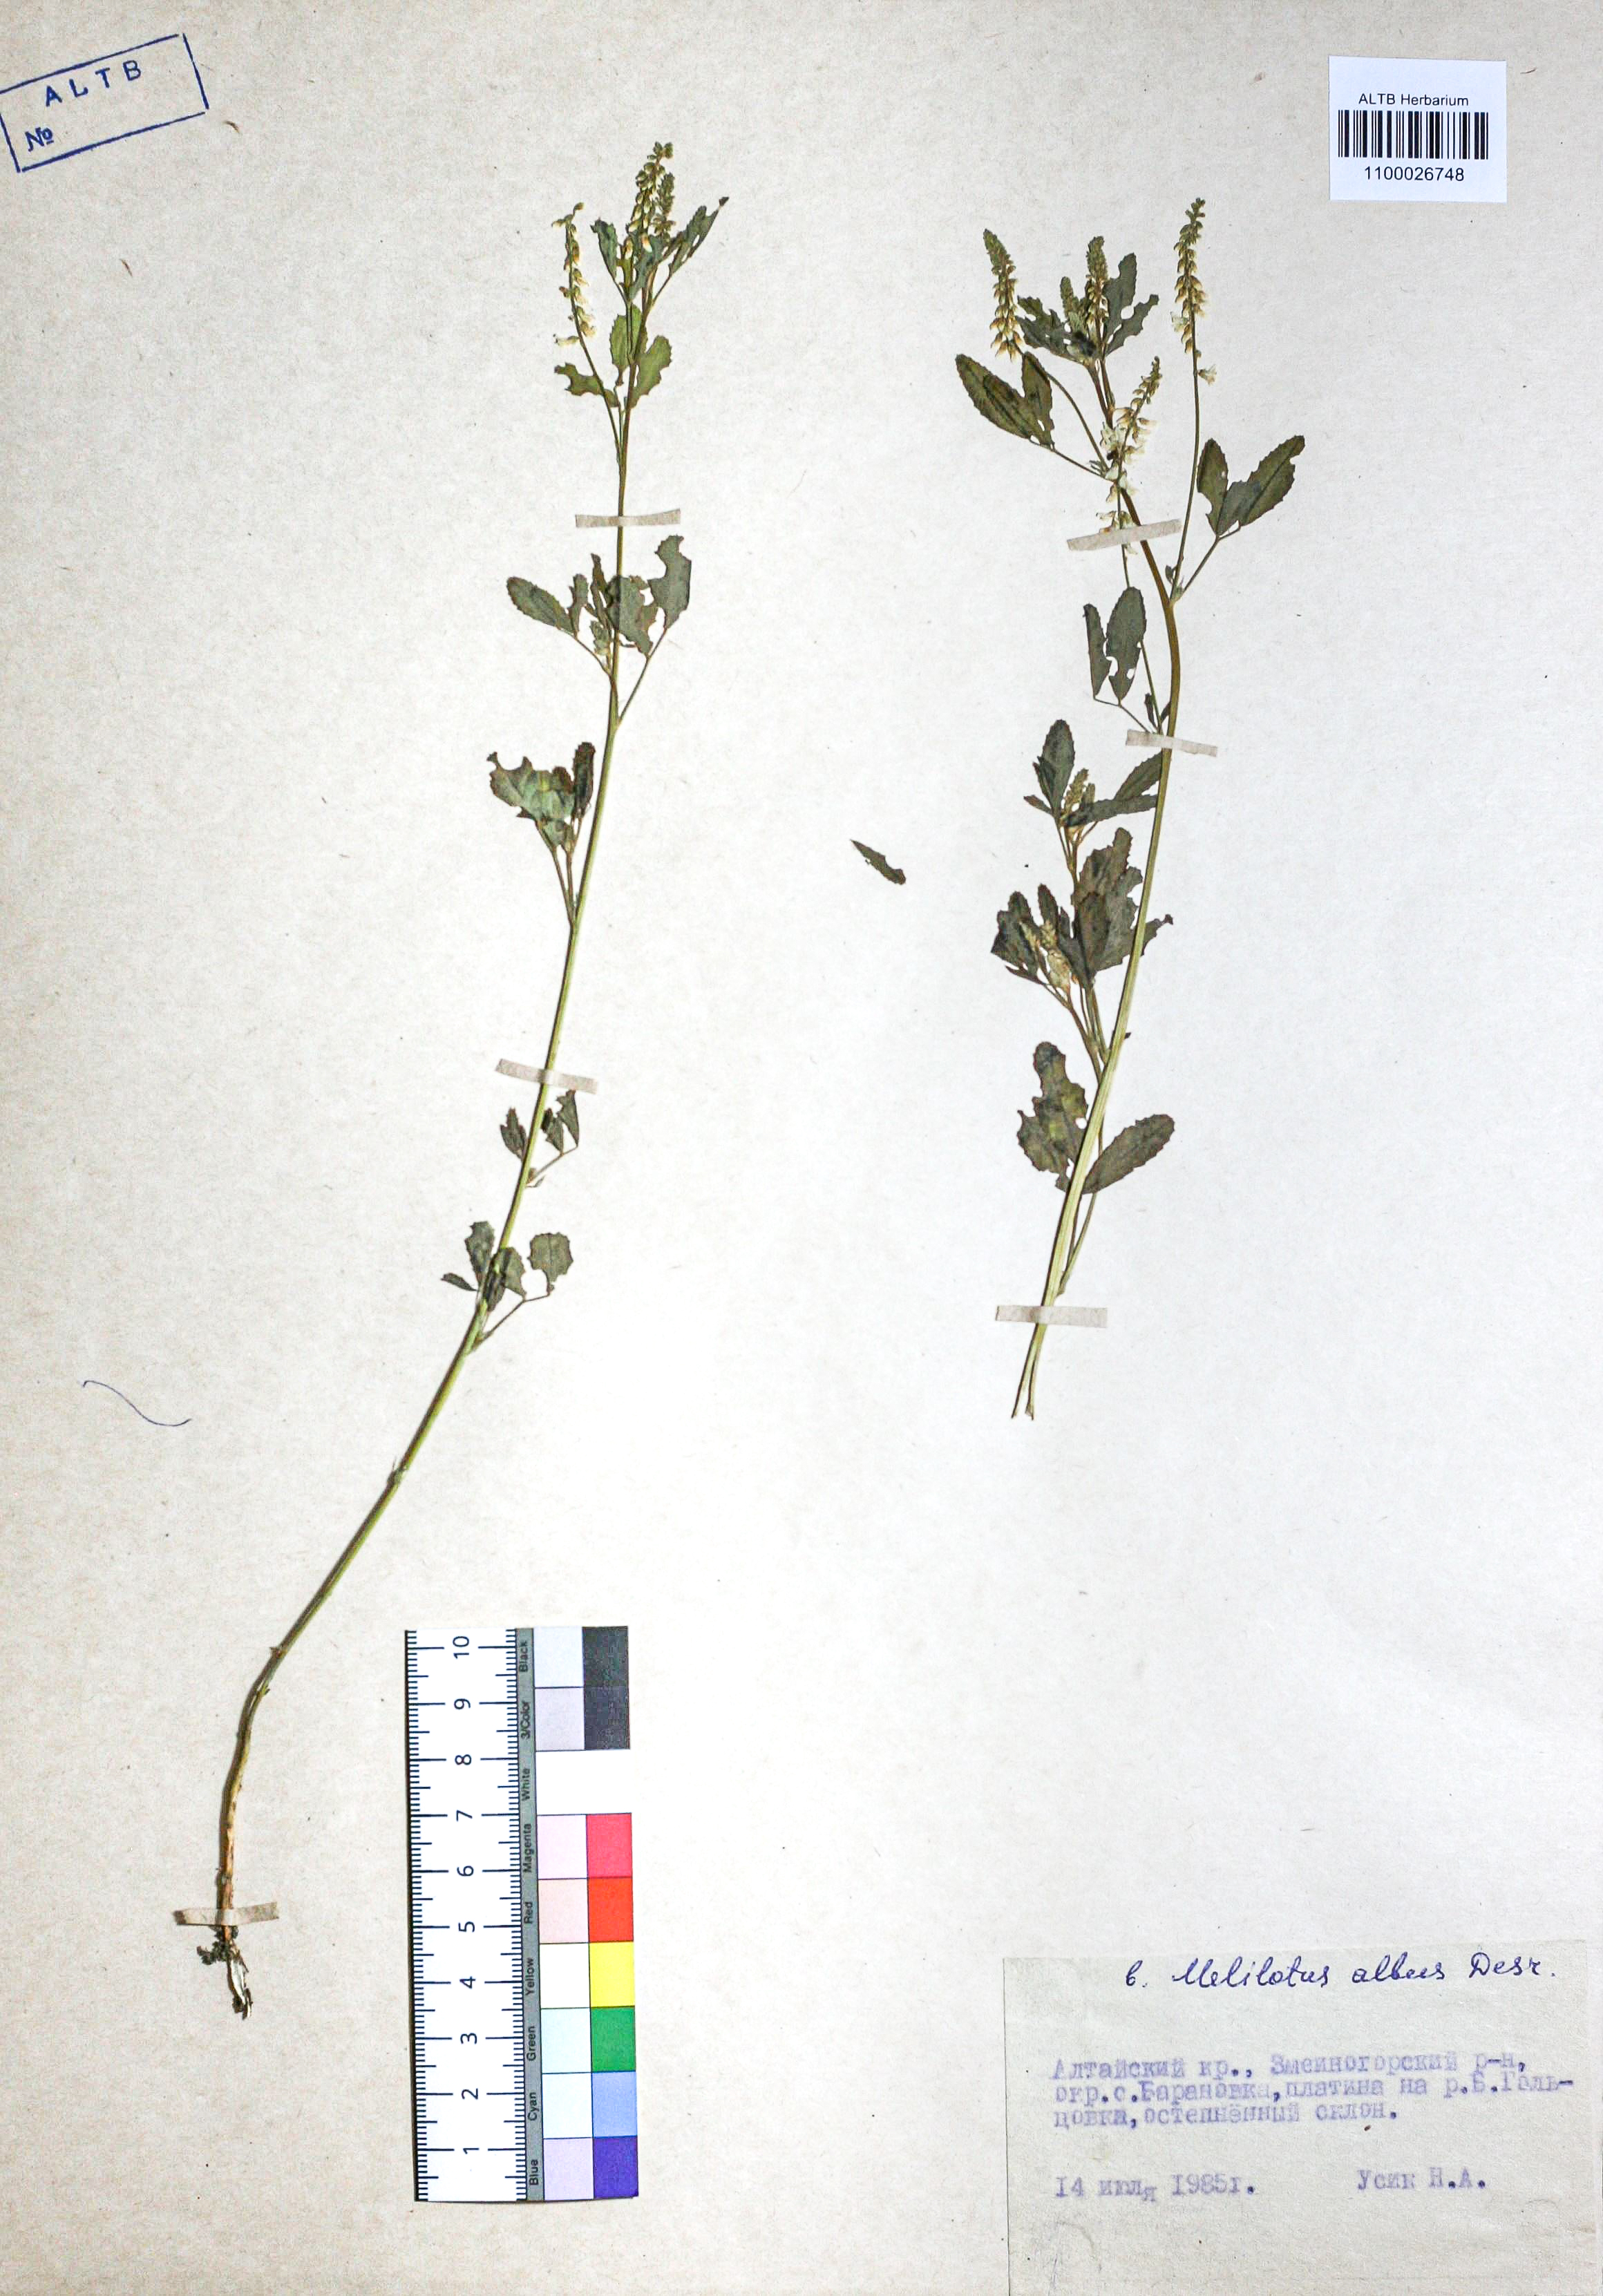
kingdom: Plantae
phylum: Tracheophyta
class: Magnoliopsida
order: Fabales
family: Fabaceae
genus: Melilotus
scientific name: Melilotus albus
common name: White melilot
